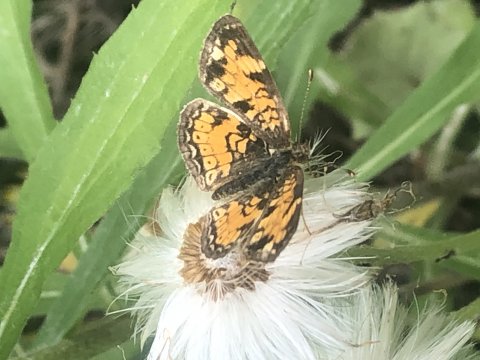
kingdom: Animalia
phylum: Arthropoda
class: Insecta
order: Lepidoptera
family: Nymphalidae
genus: Phyciodes
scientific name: Phyciodes
